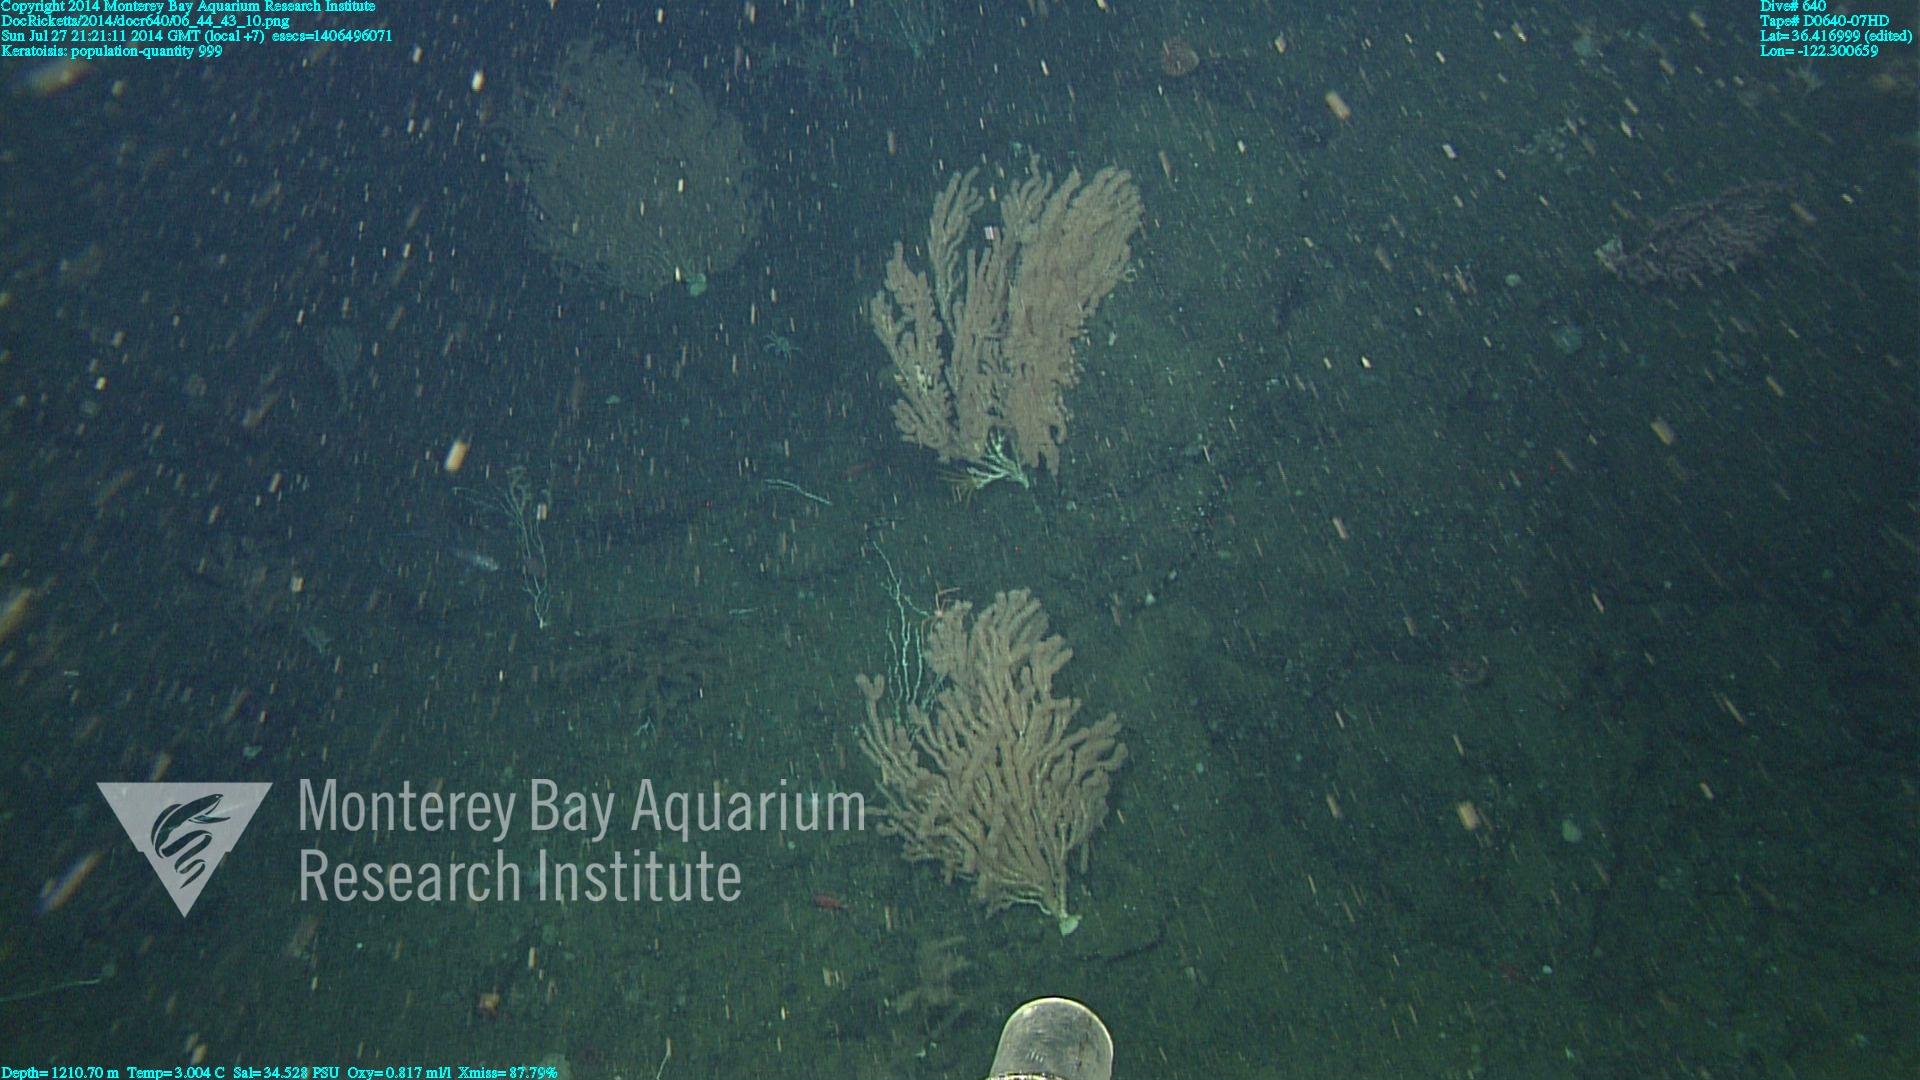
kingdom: Animalia
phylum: Cnidaria
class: Anthozoa
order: Scleralcyonacea
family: Keratoisididae
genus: Keratoisis
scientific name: Keratoisis
